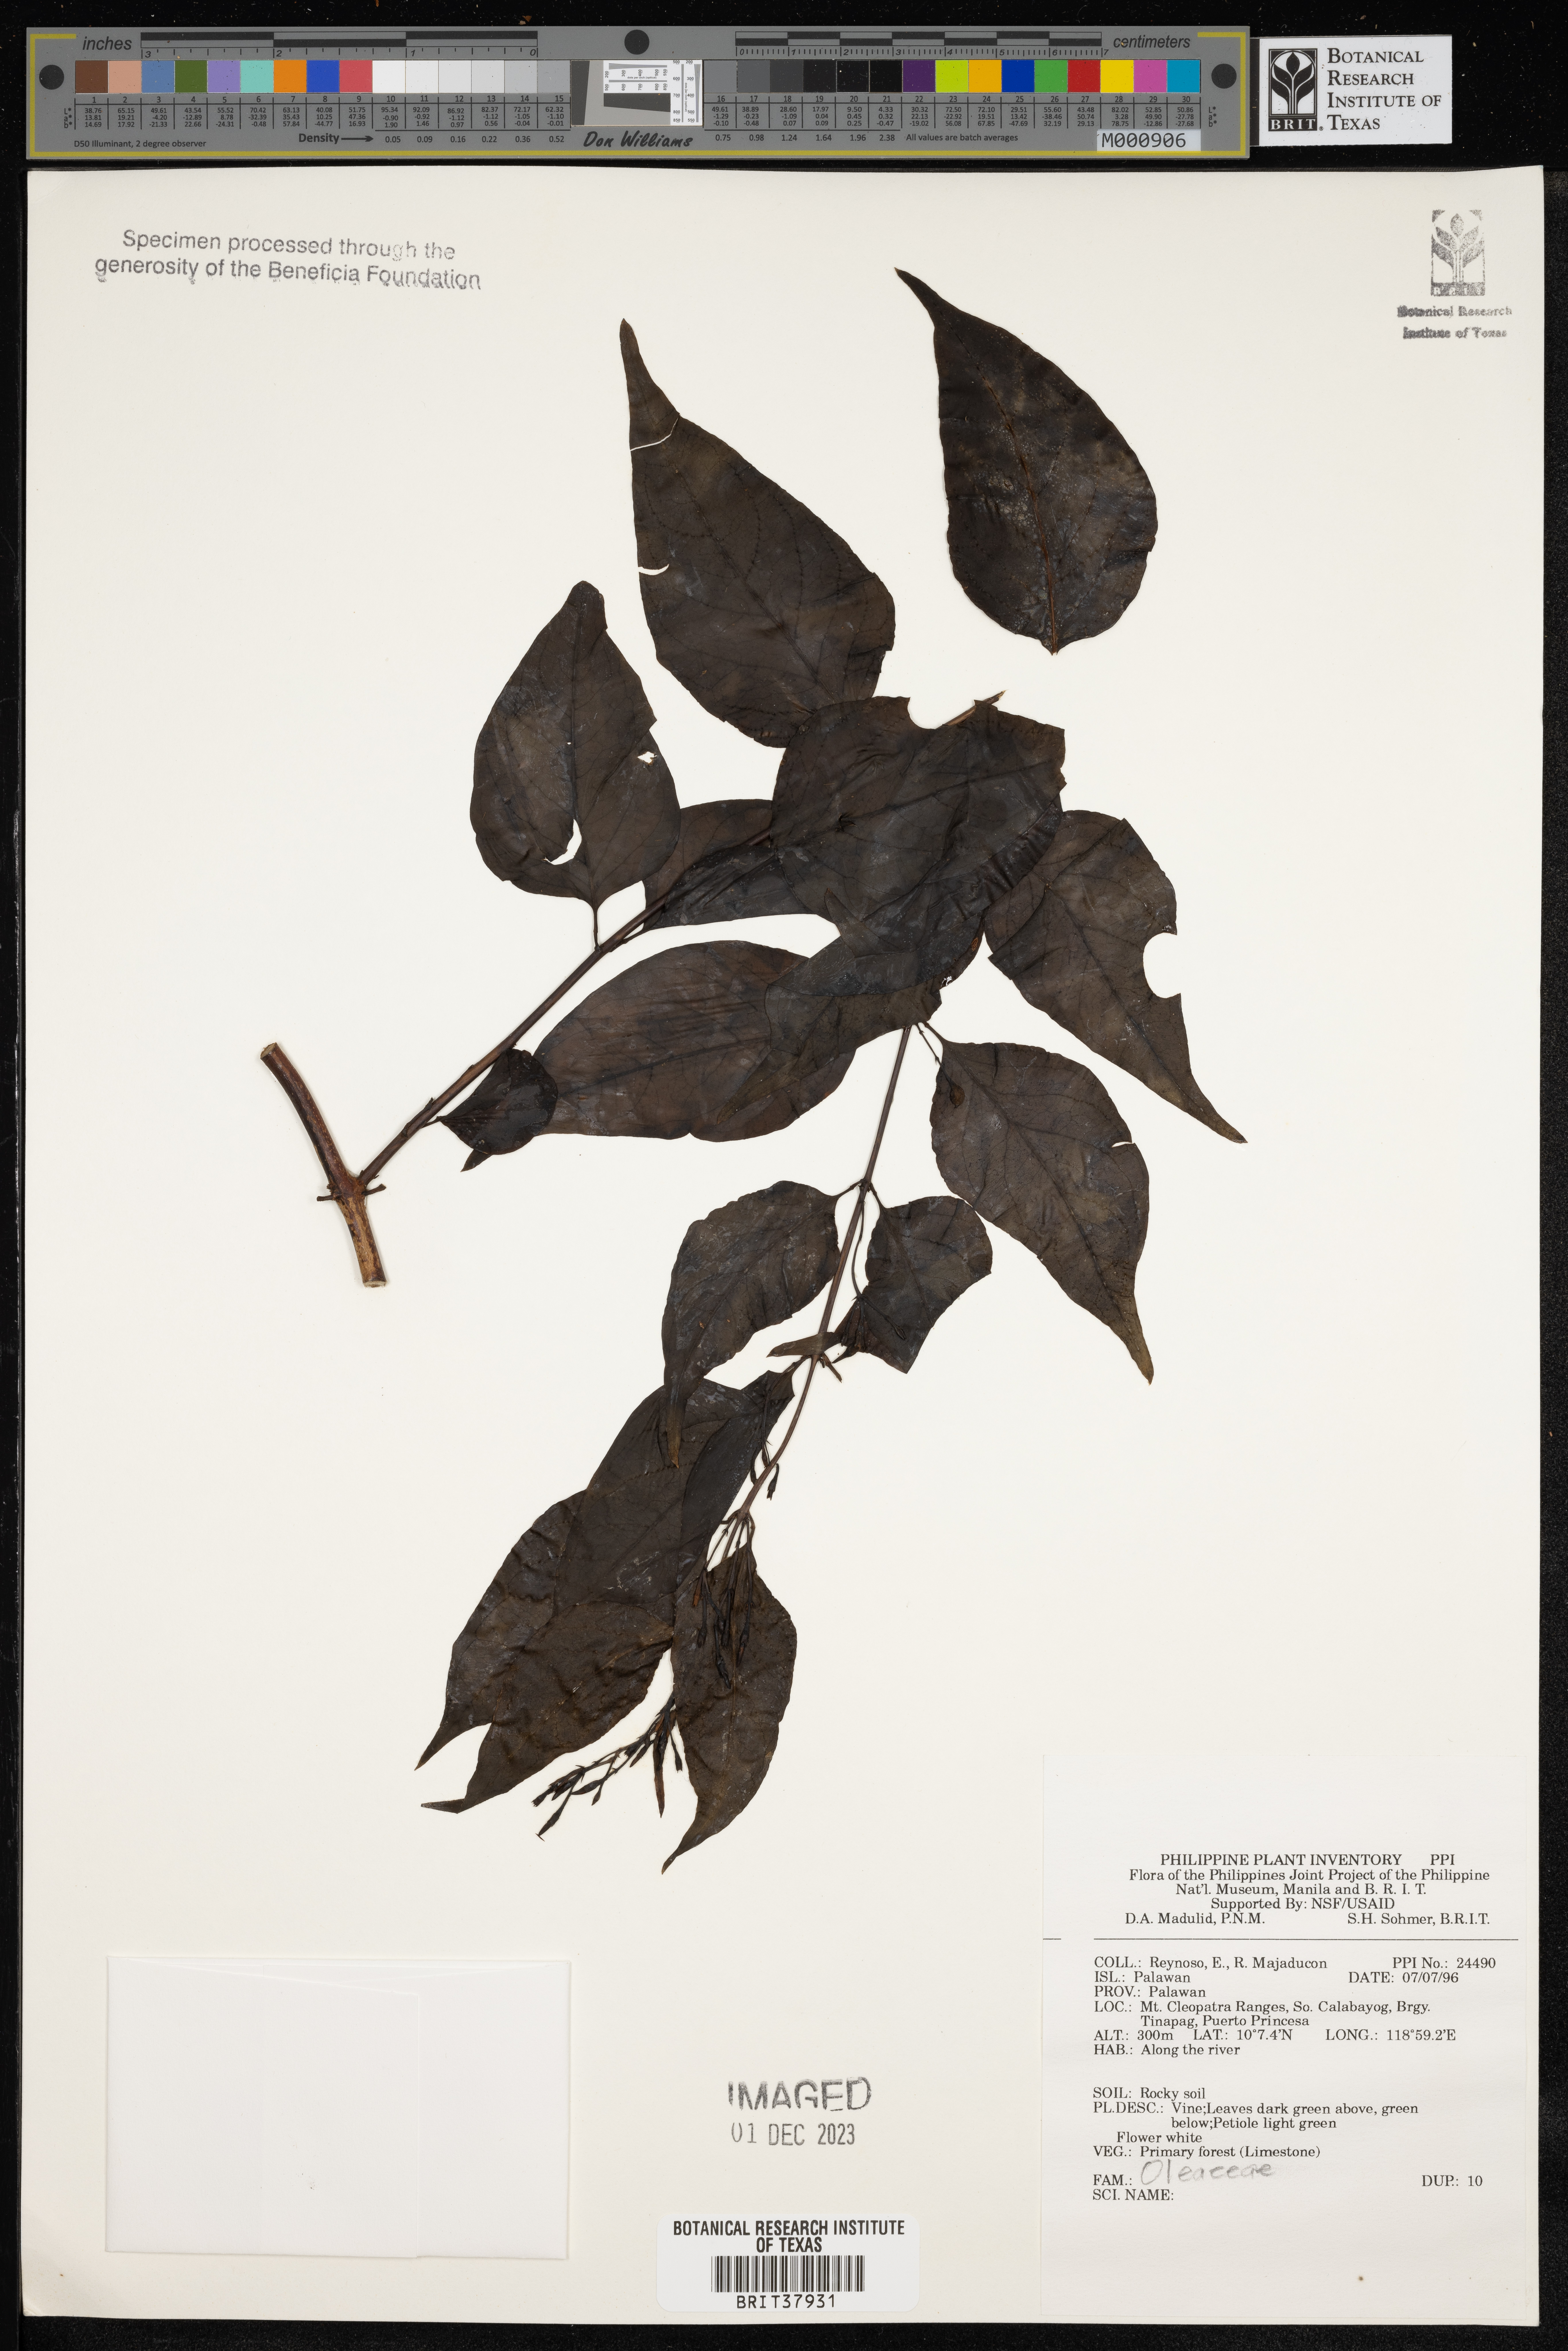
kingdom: Plantae
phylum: Tracheophyta
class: Magnoliopsida
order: Lamiales
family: Oleaceae
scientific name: Oleaceae
